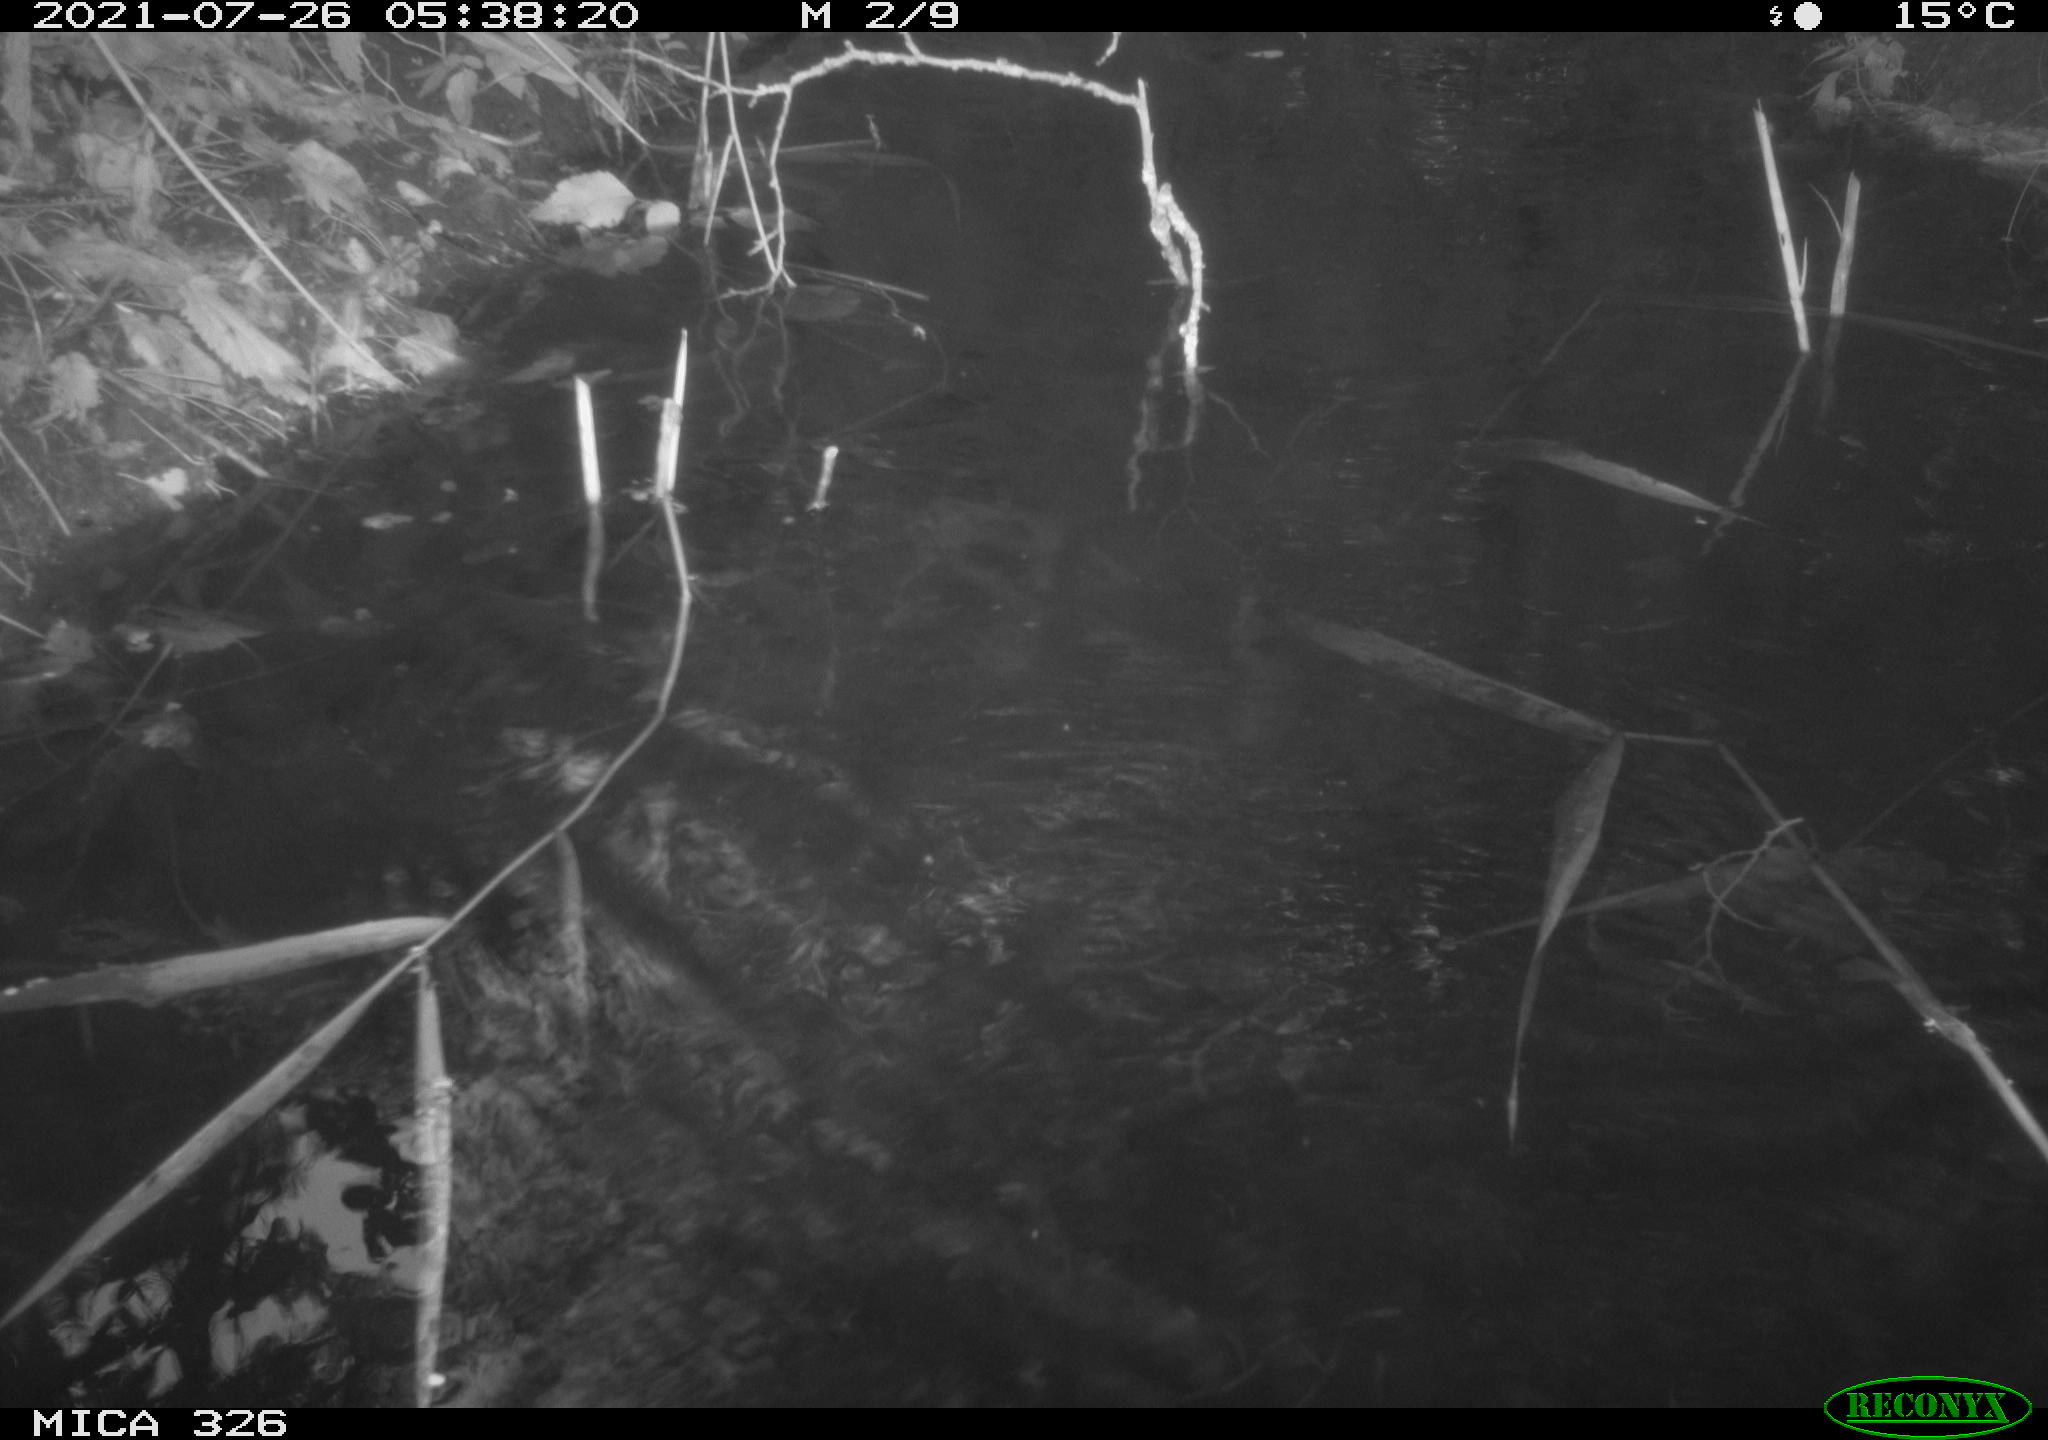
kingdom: Animalia
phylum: Chordata
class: Mammalia
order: Rodentia
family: Muridae
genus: Rattus
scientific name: Rattus norvegicus
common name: Brown rat
